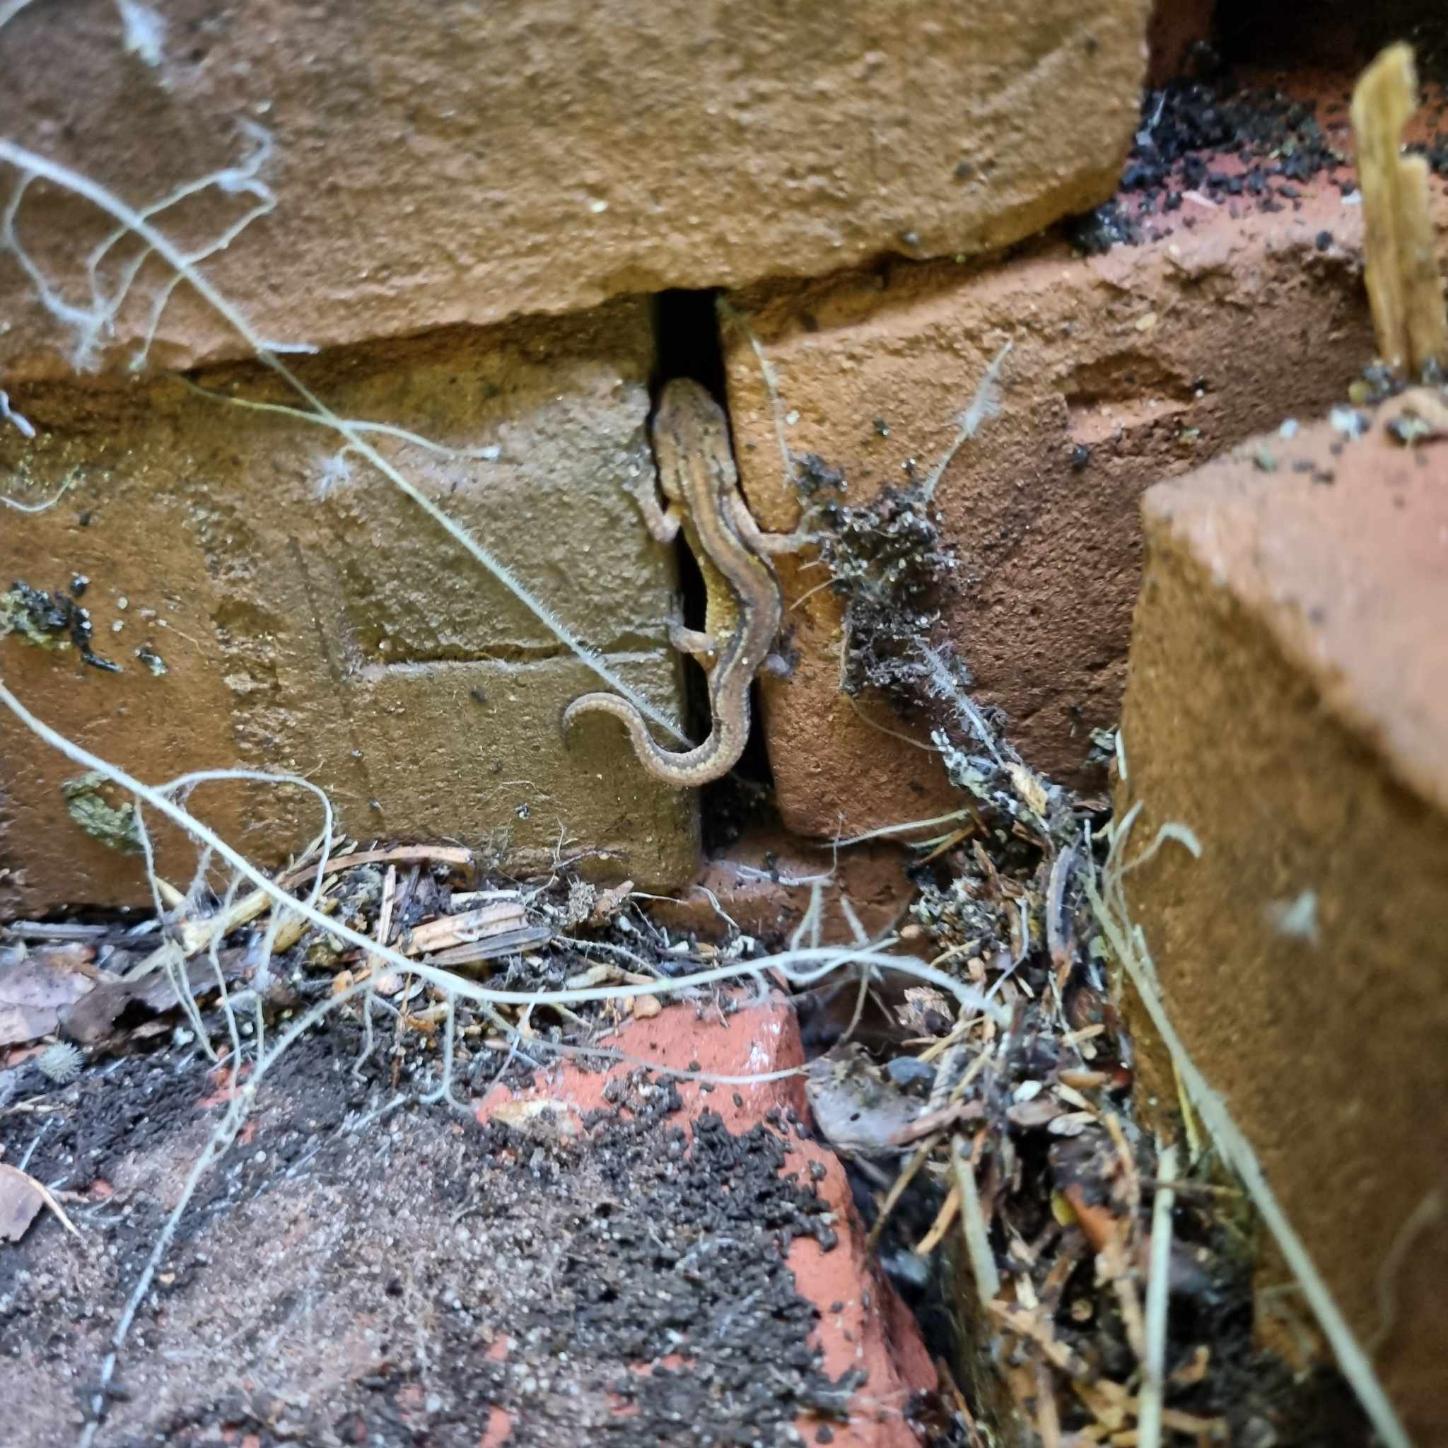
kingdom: Animalia
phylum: Chordata
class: Amphibia
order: Caudata
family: Salamandridae
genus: Lissotriton
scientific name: Lissotriton vulgaris
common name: Lille vandsalamander
